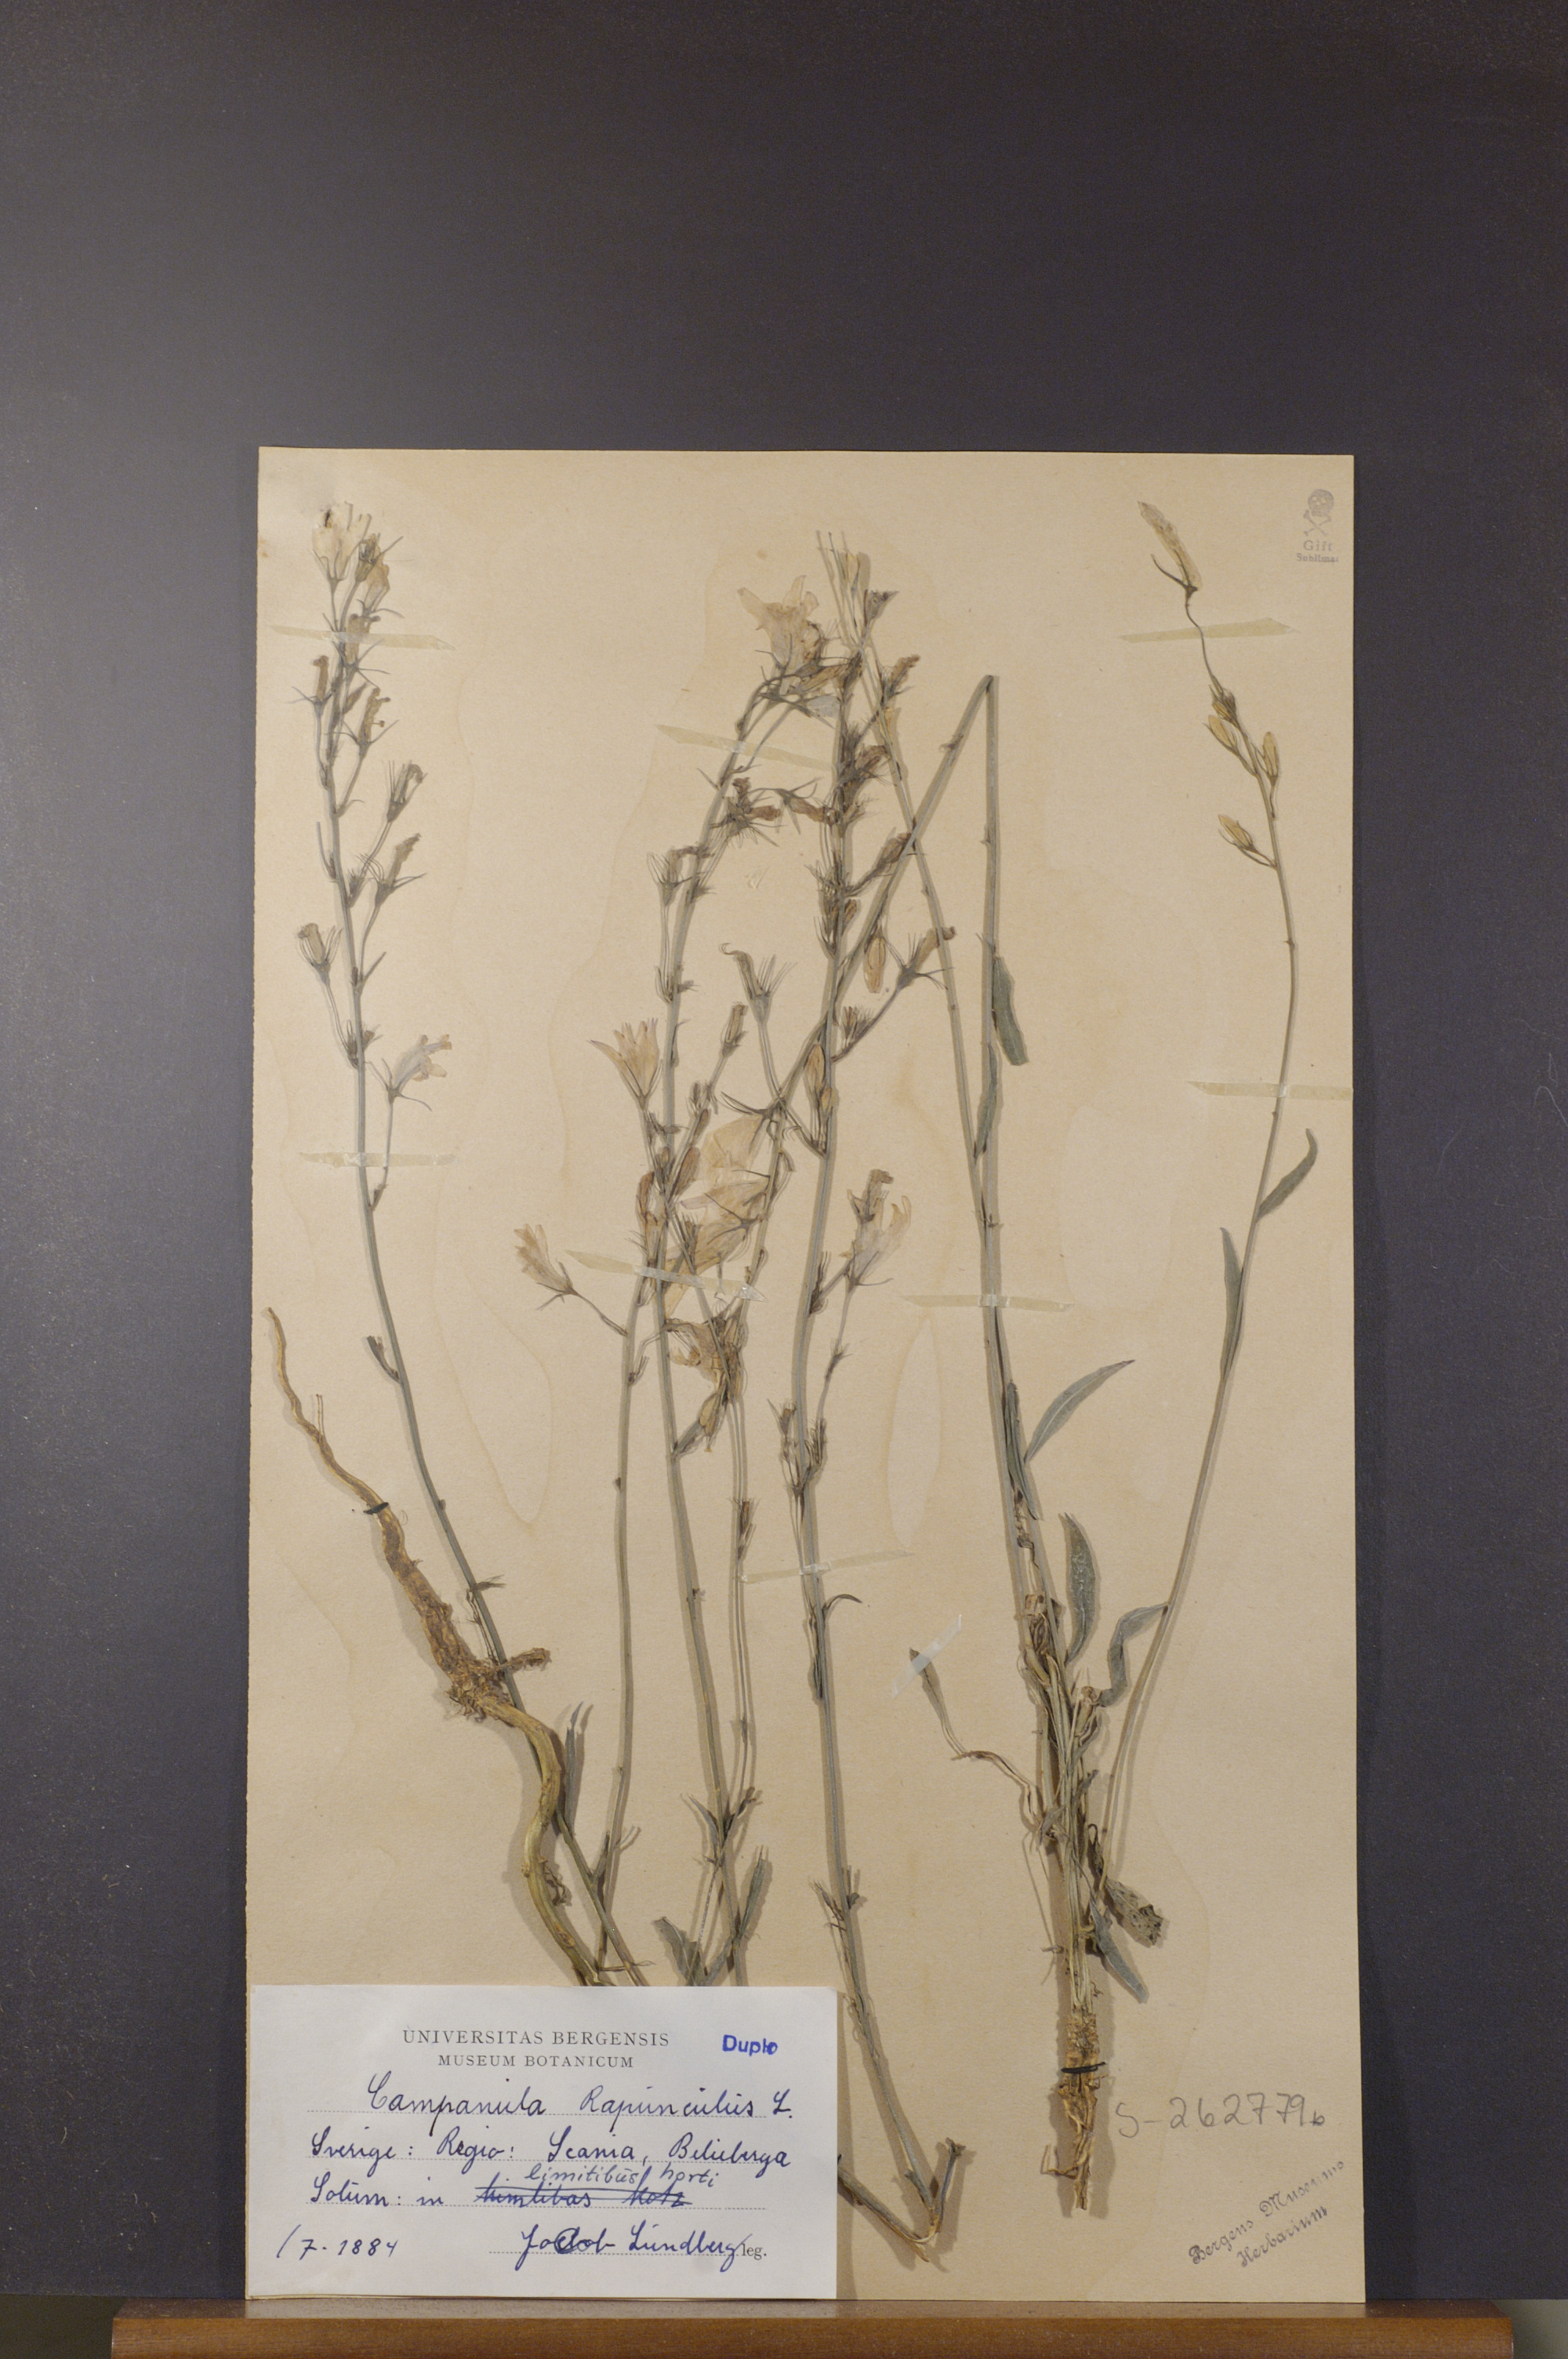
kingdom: Plantae
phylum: Tracheophyta
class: Magnoliopsida
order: Asterales
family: Campanulaceae
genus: Campanula
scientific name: Campanula rapunculus
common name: Rampion bellflower
